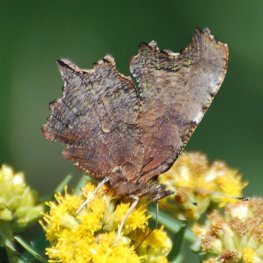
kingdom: Animalia
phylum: Arthropoda
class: Insecta
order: Lepidoptera
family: Nymphalidae
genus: Polygonia
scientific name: Polygonia faunus
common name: Green Comma
